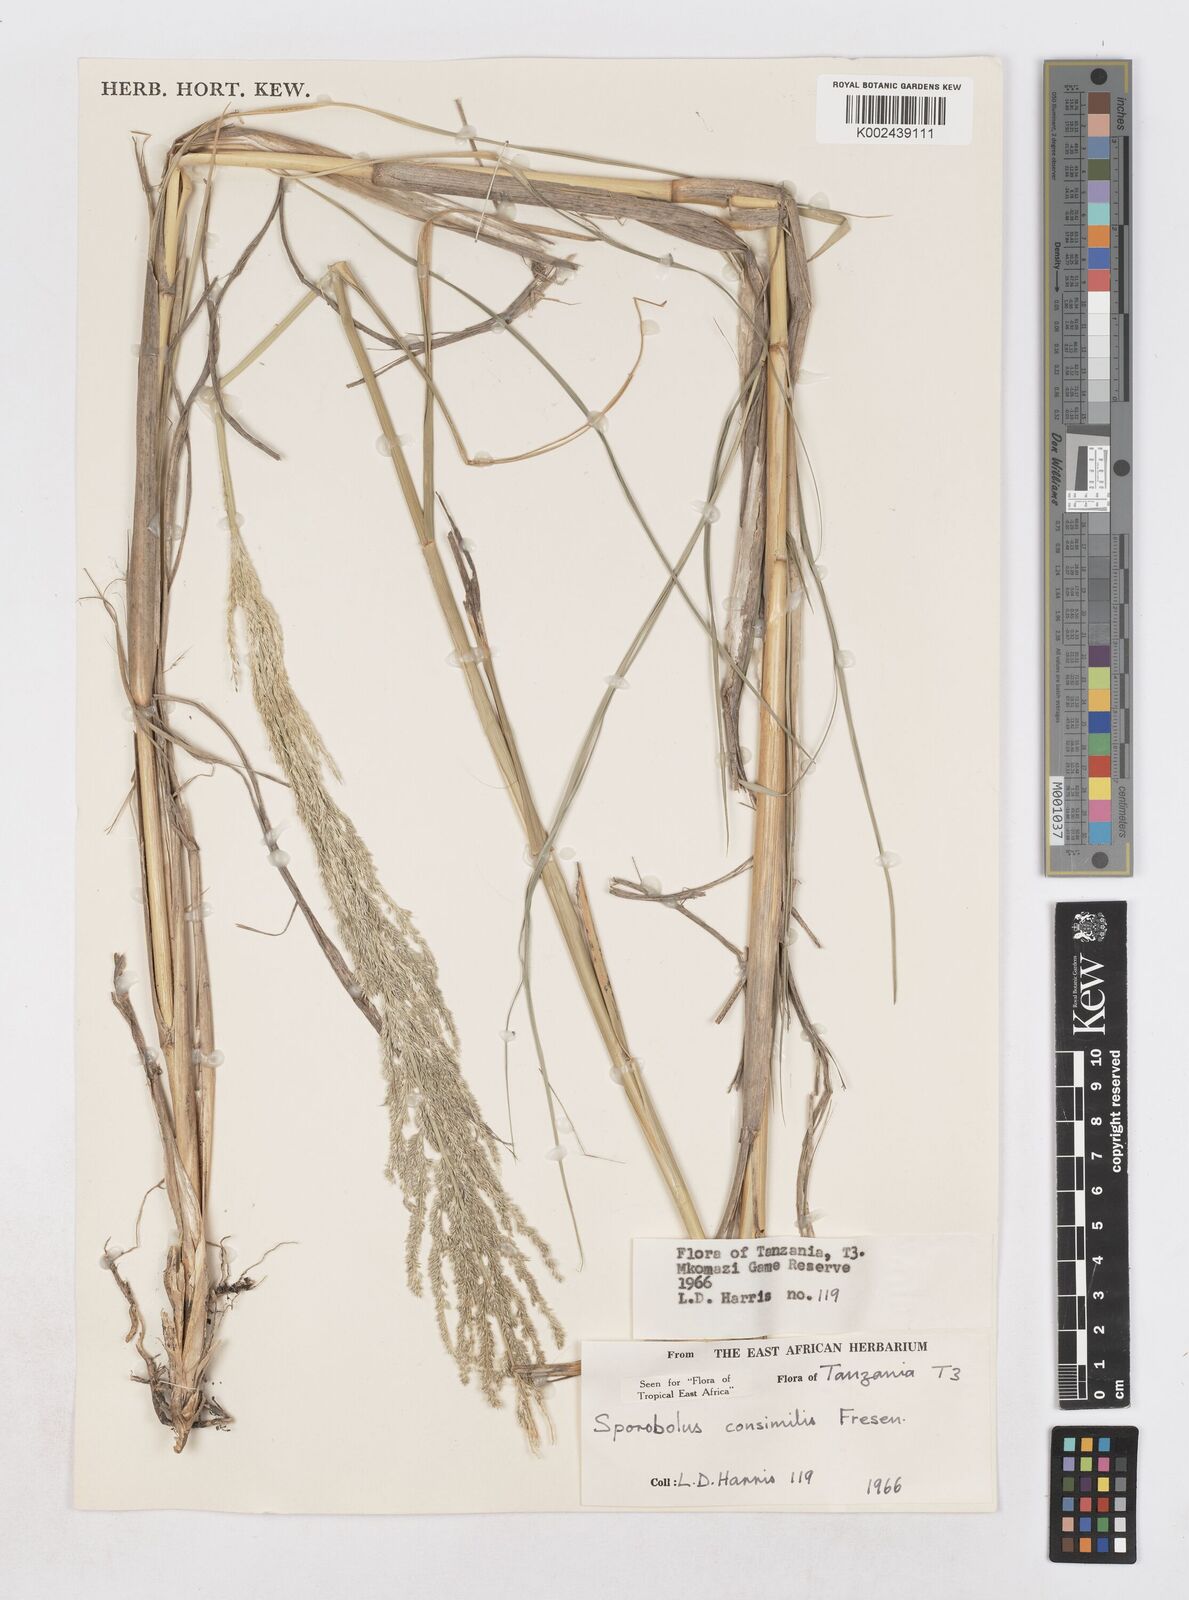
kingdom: Plantae
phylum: Tracheophyta
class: Liliopsida
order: Poales
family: Poaceae
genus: Sporobolus
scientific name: Sporobolus consimilis
